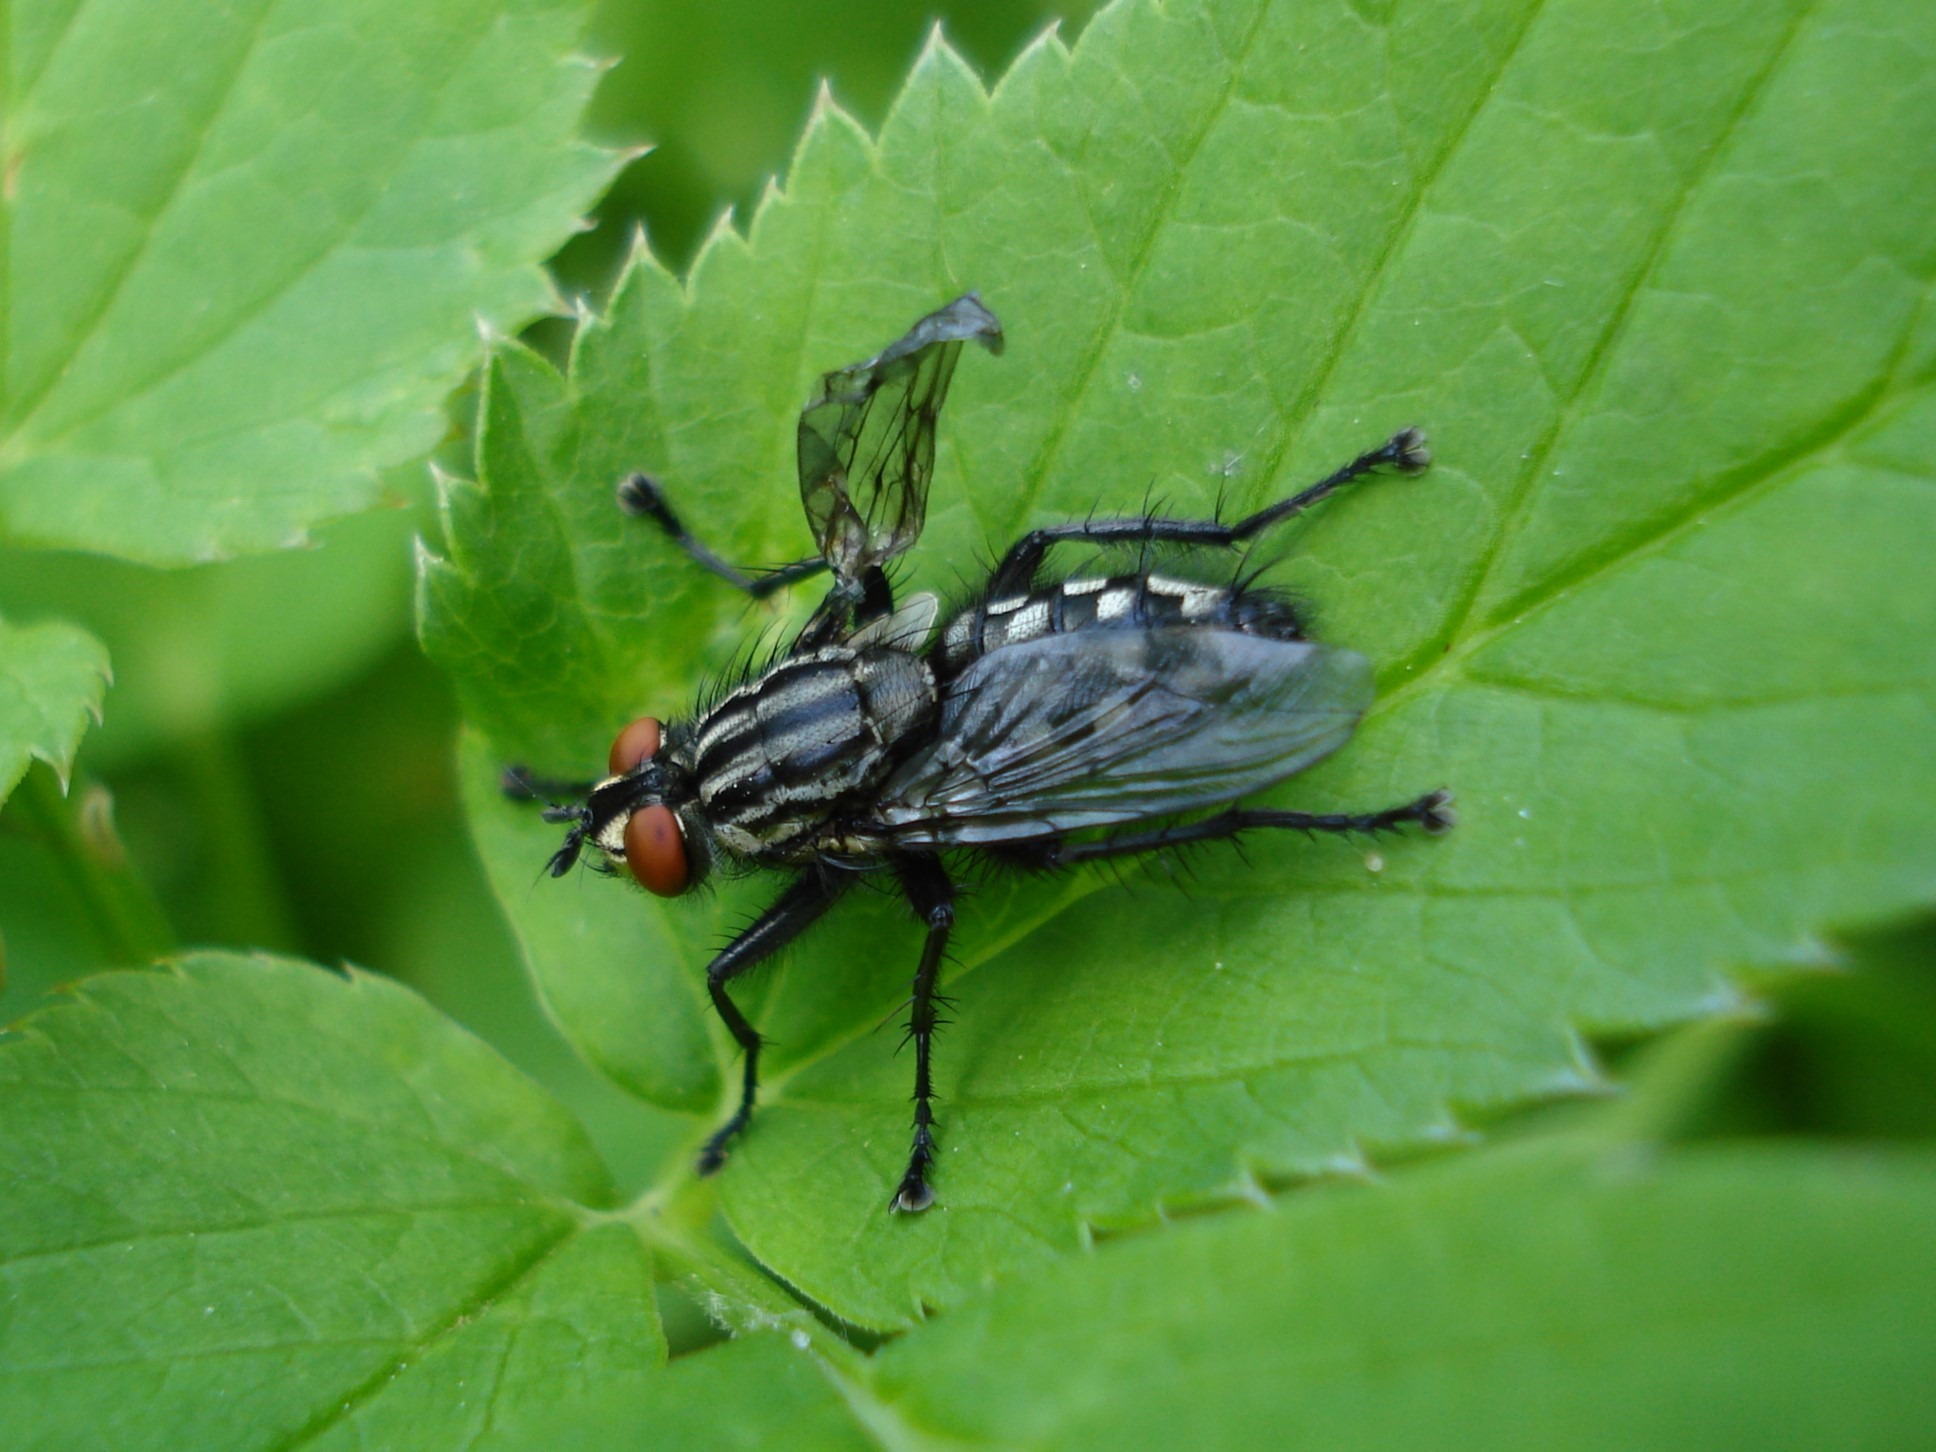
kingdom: Animalia
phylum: Arthropoda
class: Insecta
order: Diptera
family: Sarcophagidae
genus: Sarcophaga
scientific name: Sarcophaga
